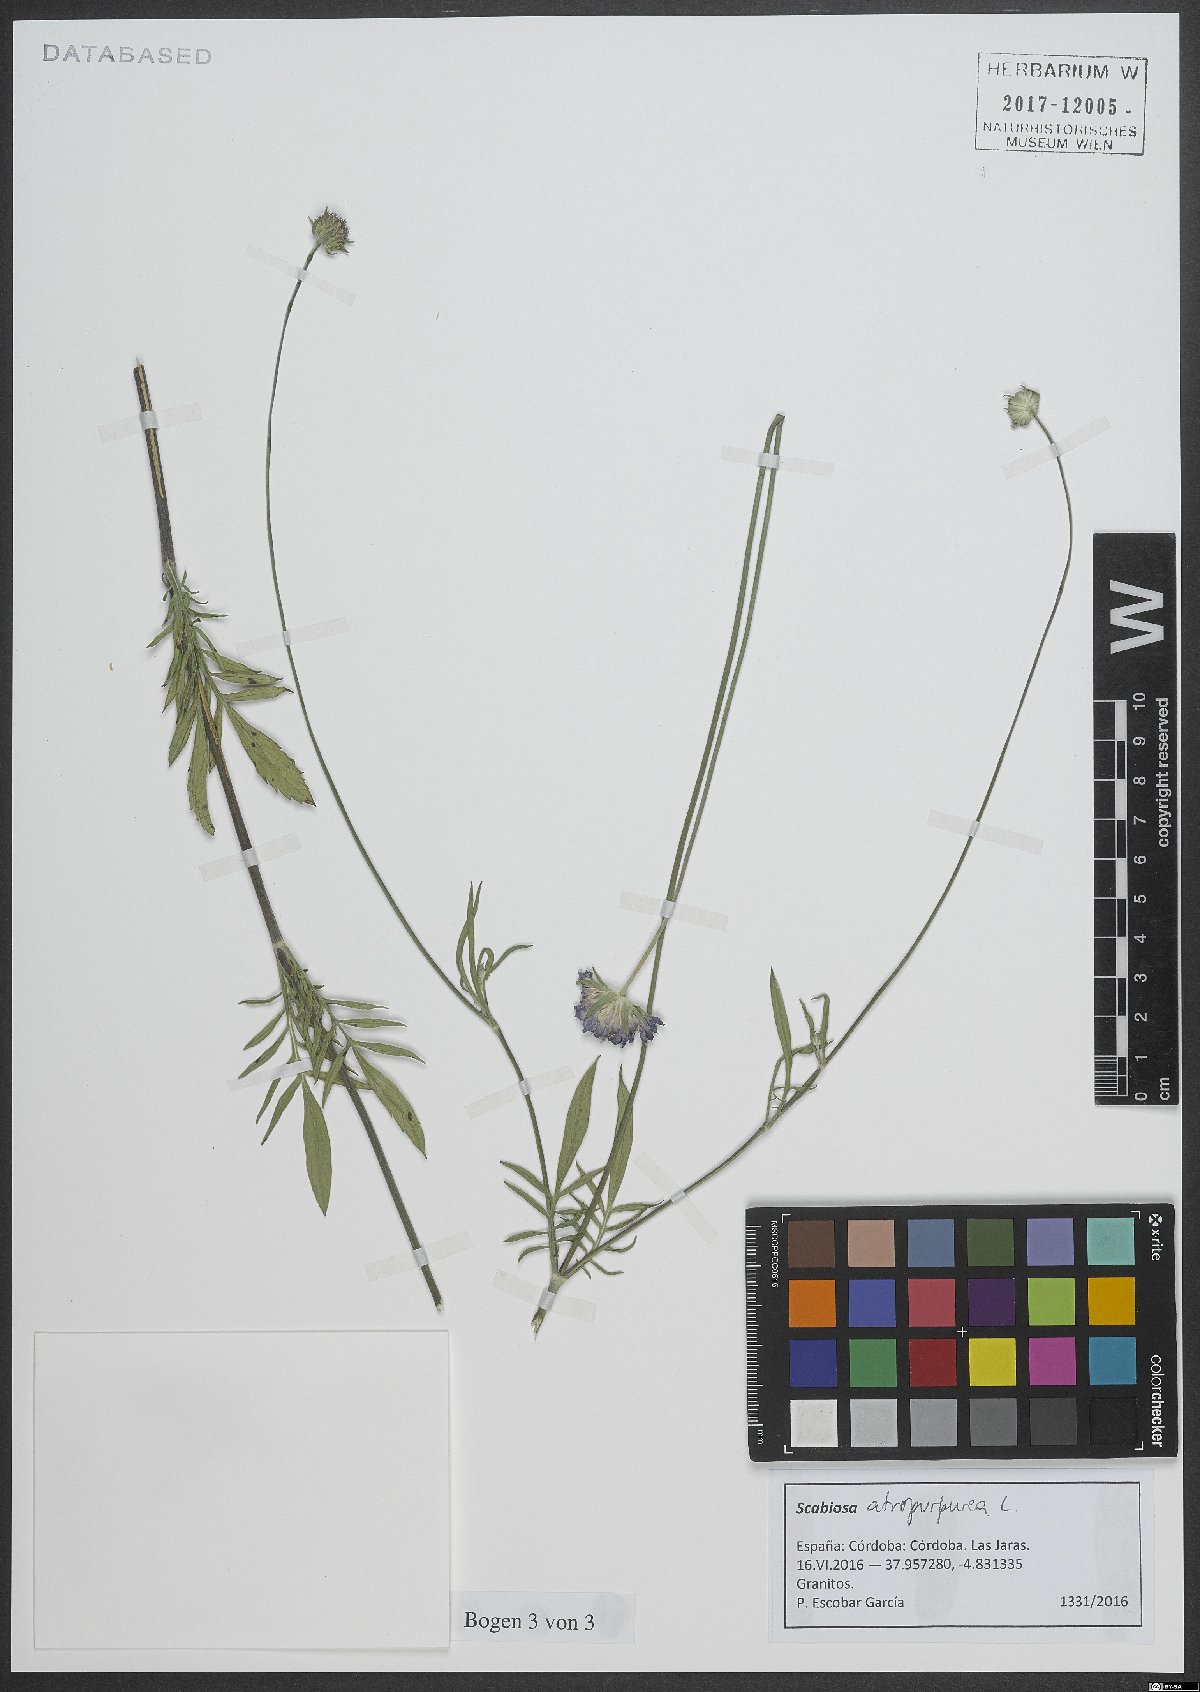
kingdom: Plantae
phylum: Tracheophyta
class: Magnoliopsida
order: Dipsacales
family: Caprifoliaceae
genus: Sixalix
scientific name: Sixalix atropurpurea
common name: Sweet scabious
